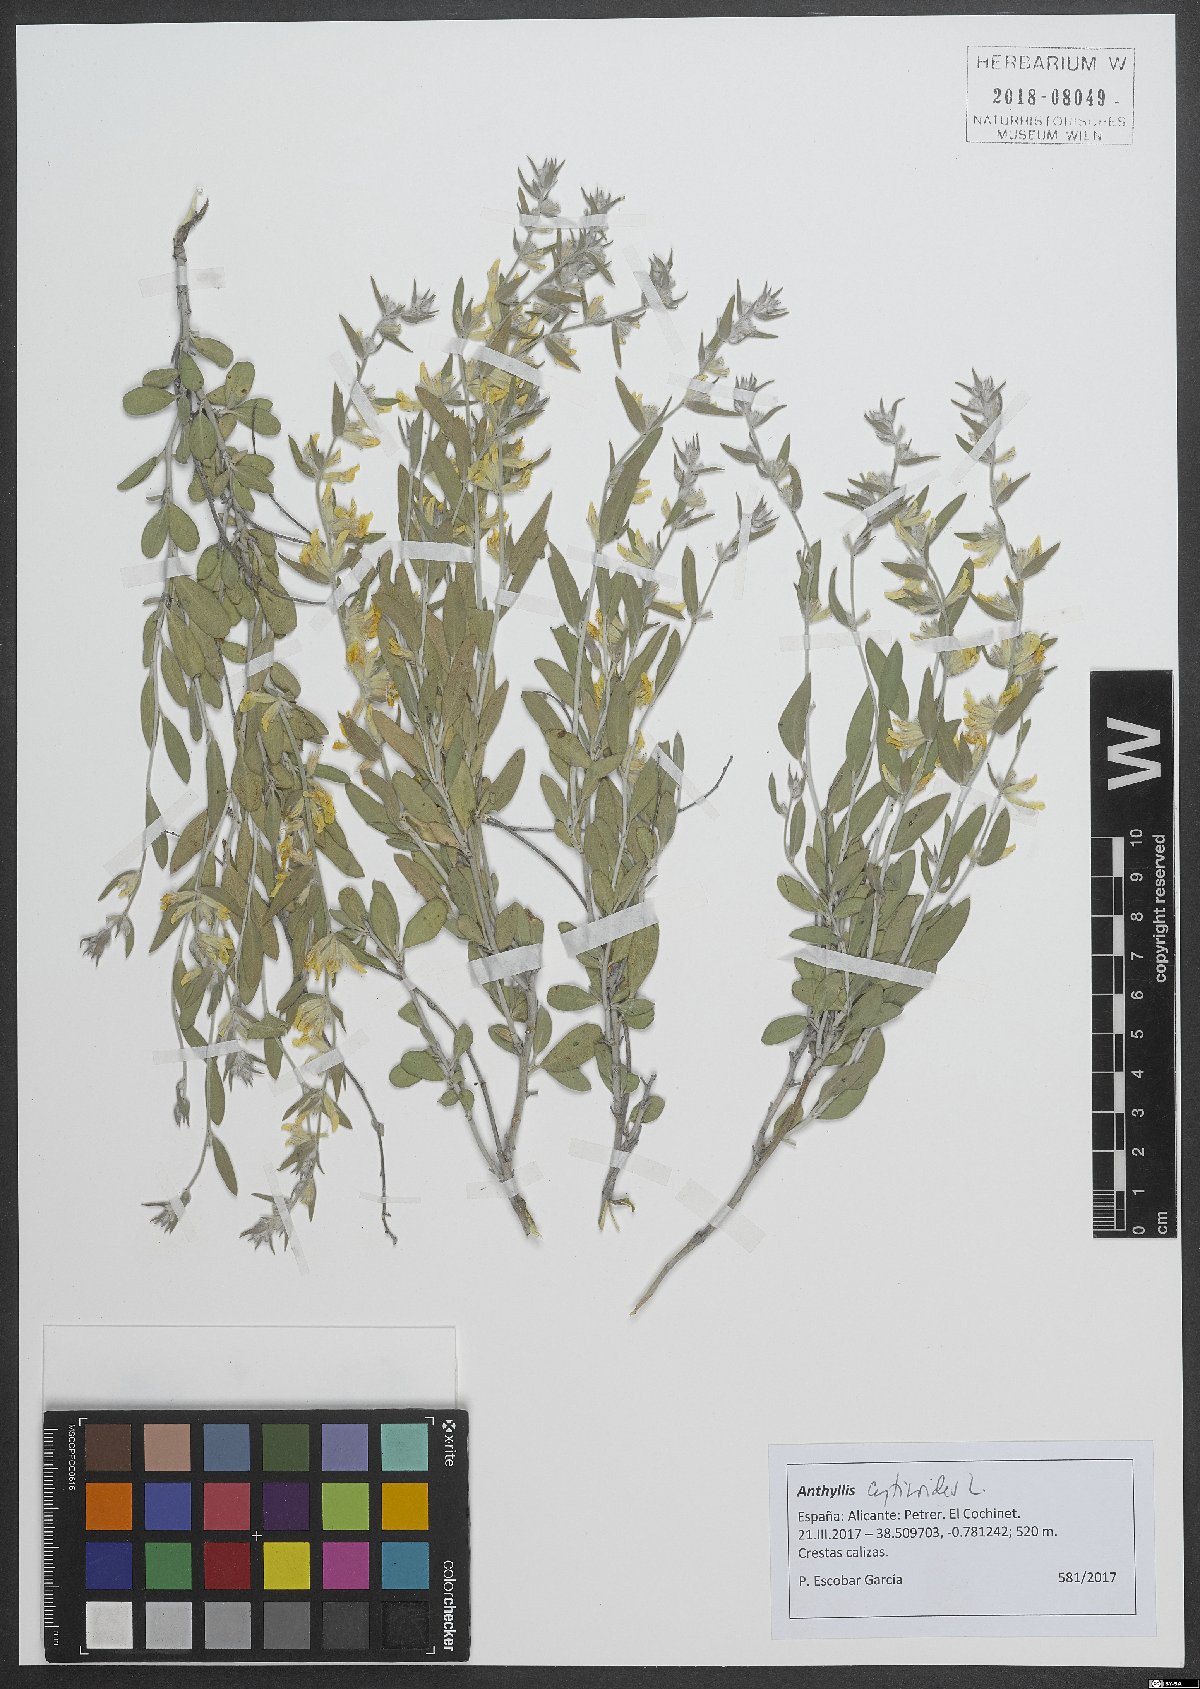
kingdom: Plantae
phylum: Tracheophyta
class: Magnoliopsida
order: Fabales
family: Fabaceae
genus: Anthyllis
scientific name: Anthyllis cytisoides
